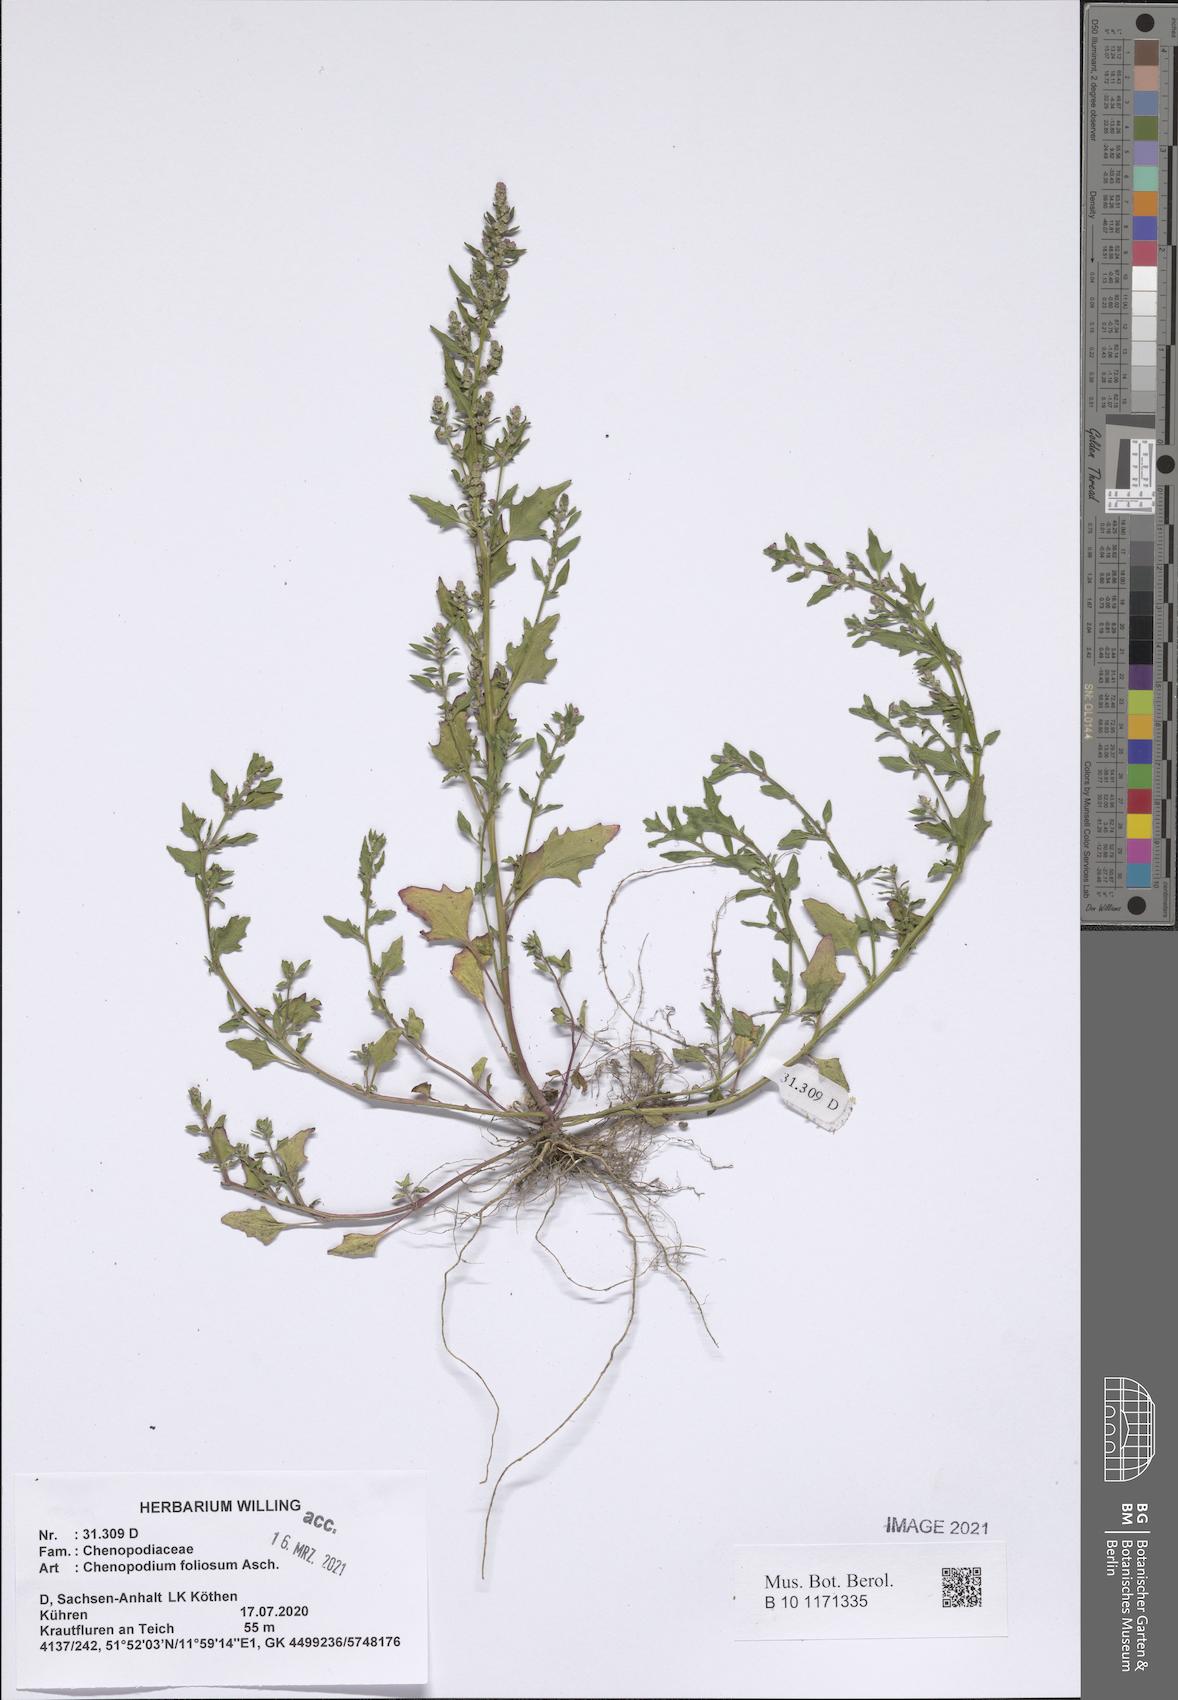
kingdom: Plantae
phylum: Tracheophyta
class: Magnoliopsida
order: Caryophyllales
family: Amaranthaceae
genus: Blitum
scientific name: Blitum virgatum
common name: Strawberry goosefoot
